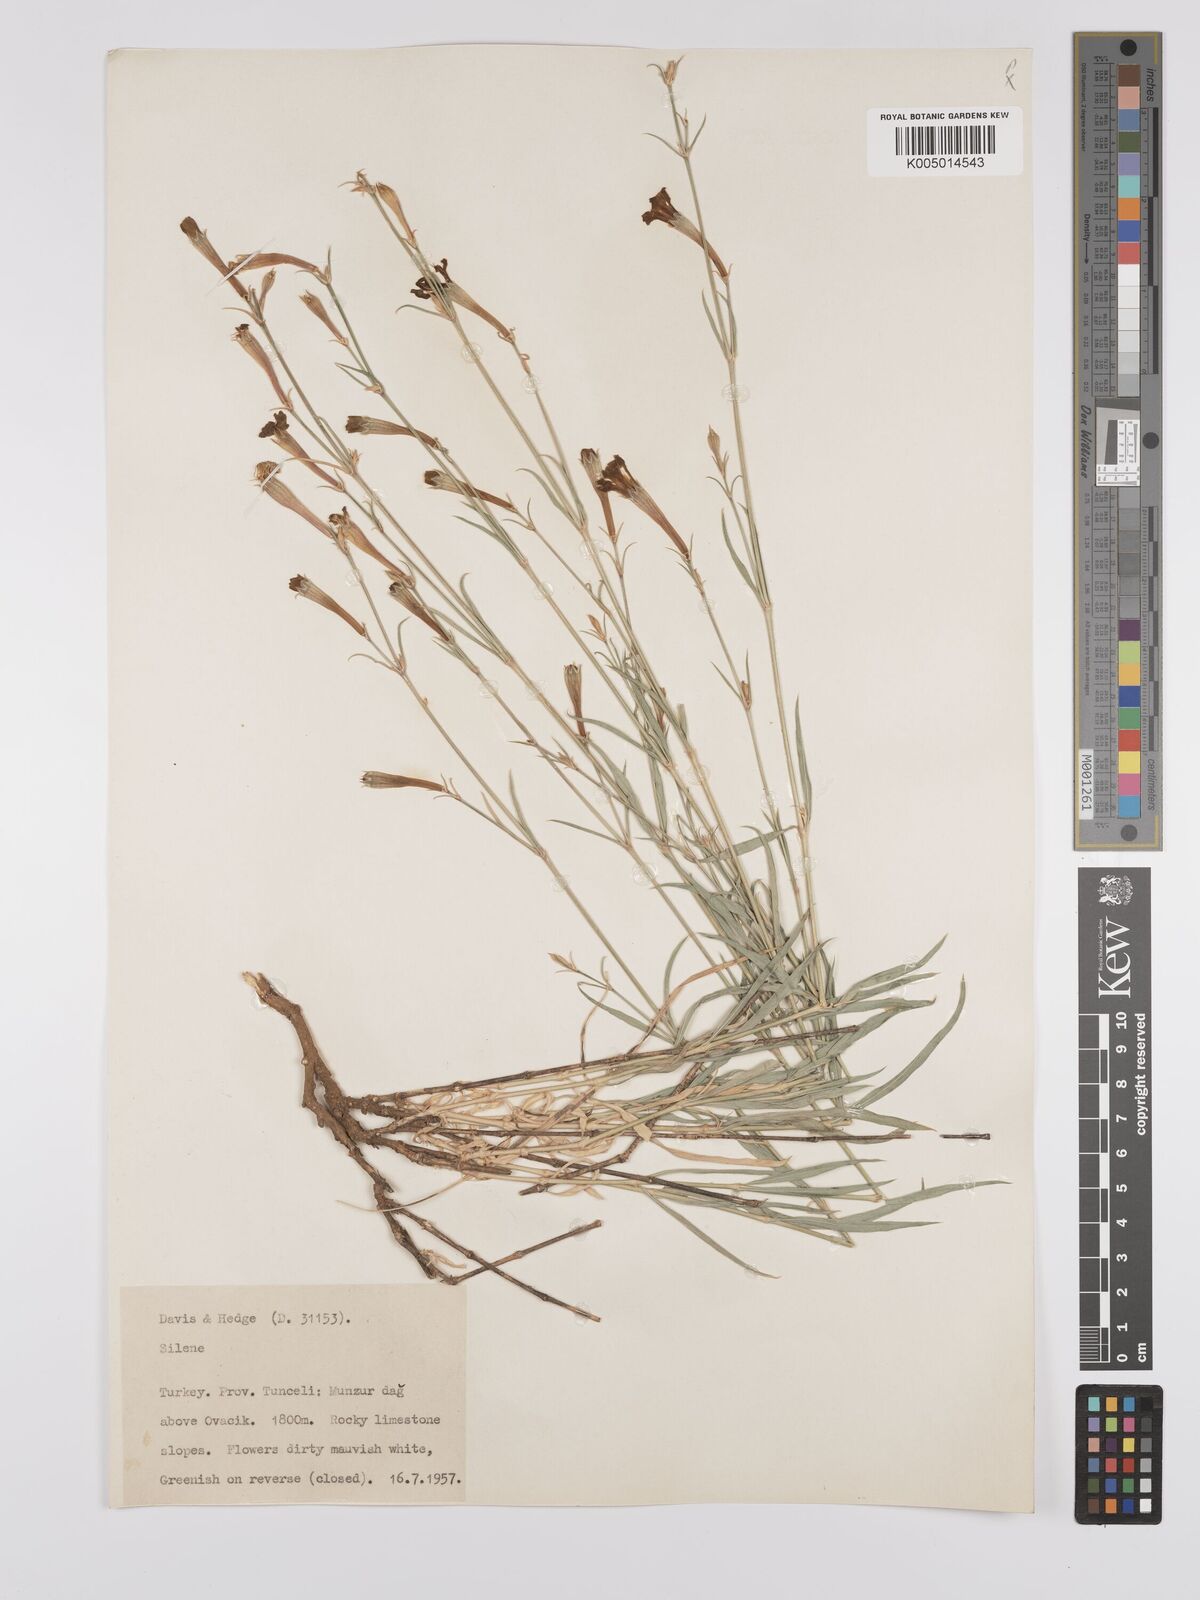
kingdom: Plantae
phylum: Tracheophyta
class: Magnoliopsida
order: Caryophyllales
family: Caryophyllaceae
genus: Silene
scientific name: Silene
